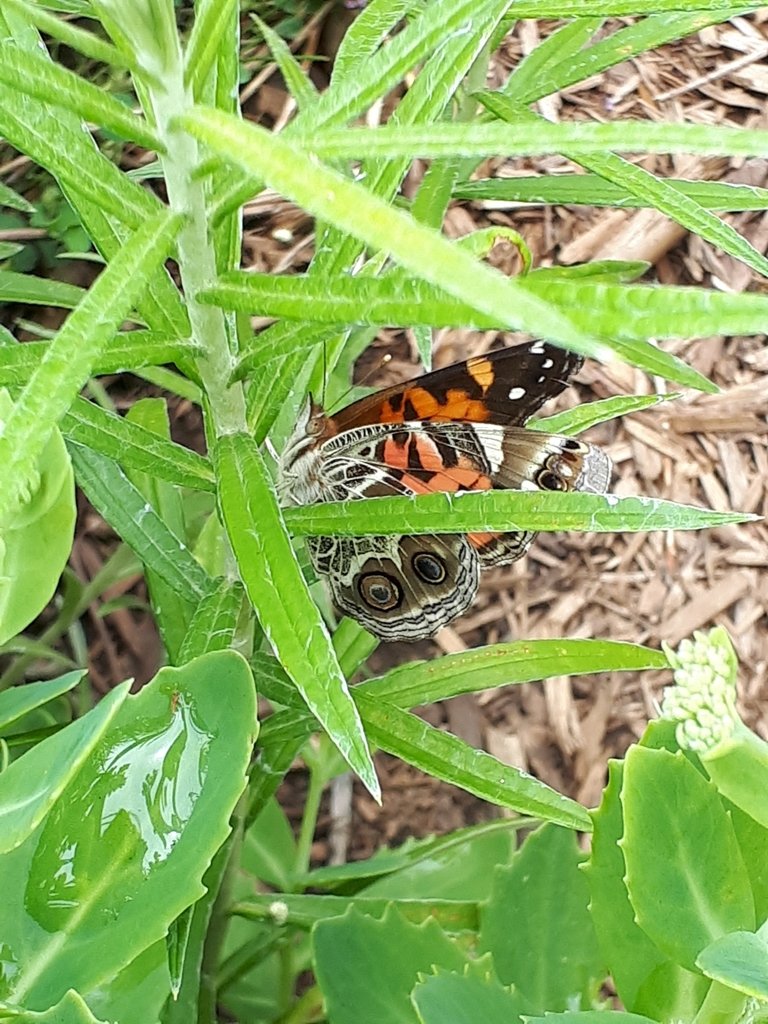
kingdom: Animalia
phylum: Arthropoda
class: Insecta
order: Lepidoptera
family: Nymphalidae
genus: Vanessa
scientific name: Vanessa virginiensis
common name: American Lady
